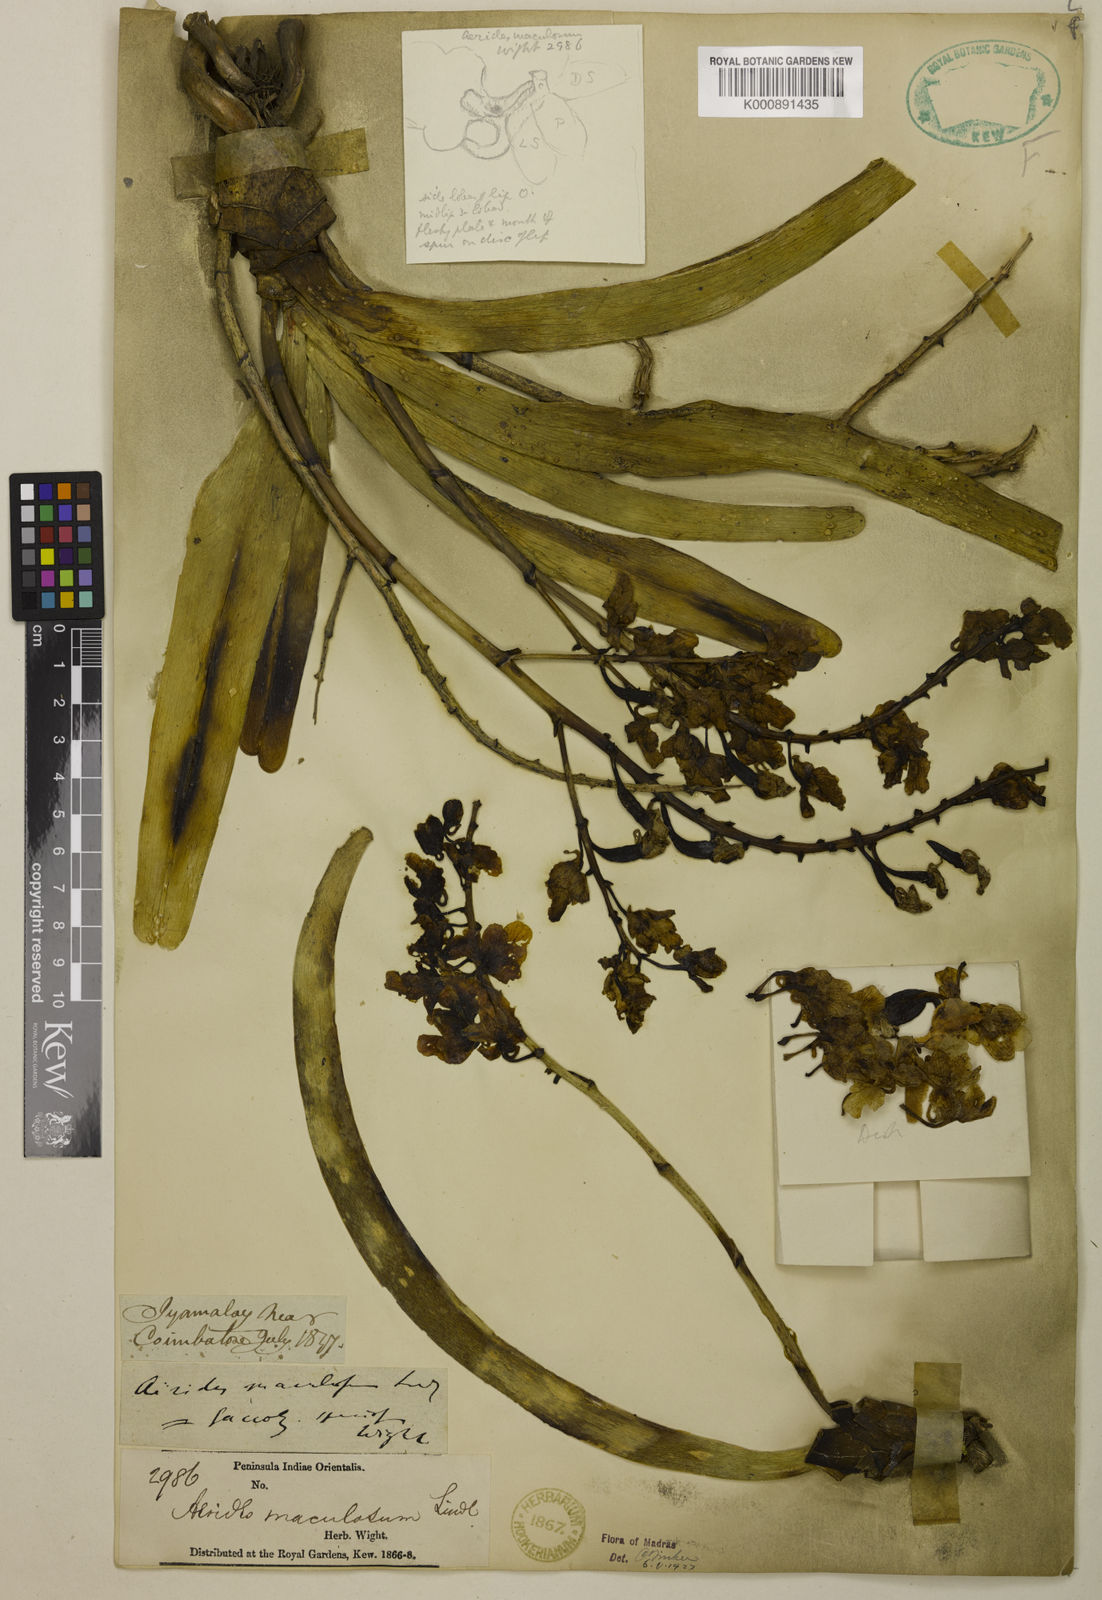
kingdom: Plantae
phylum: Tracheophyta
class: Liliopsida
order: Asparagales
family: Orchidaceae
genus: Aerides
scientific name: Aerides maculosa
